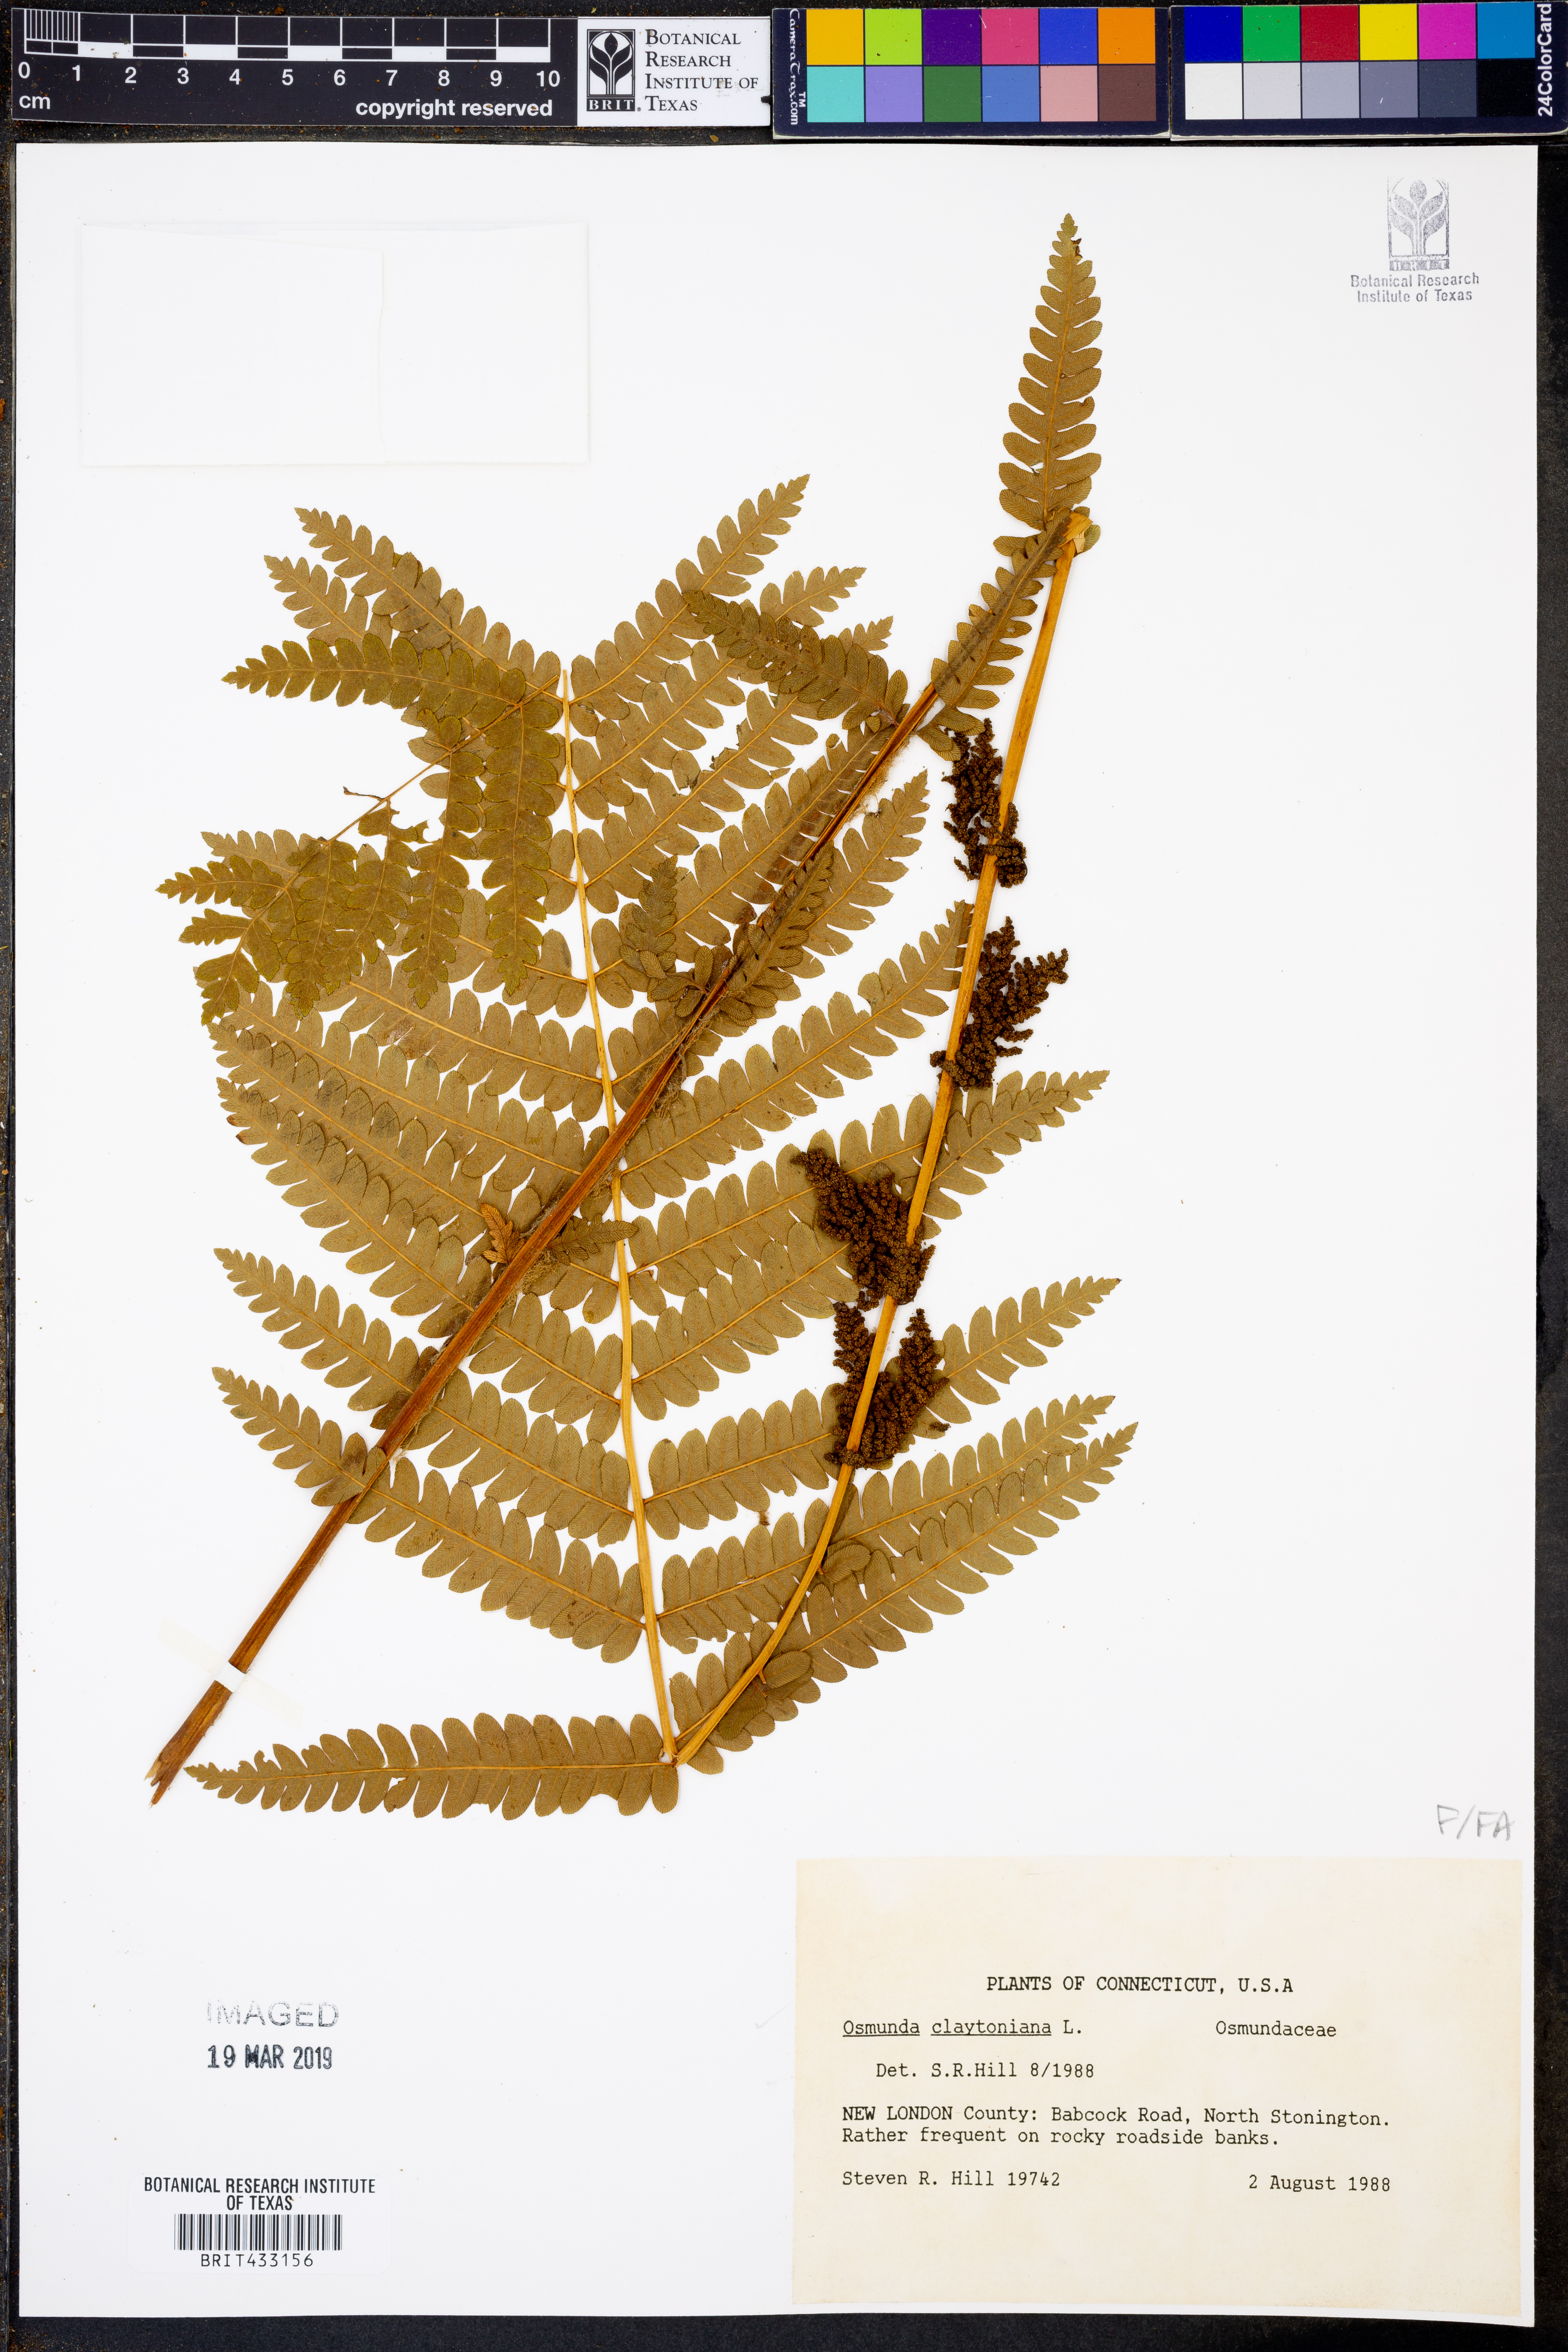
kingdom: Plantae
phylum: Tracheophyta
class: Polypodiopsida
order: Osmundales
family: Osmundaceae
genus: Claytosmunda
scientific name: Claytosmunda claytoniana
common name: Clayton's fern
